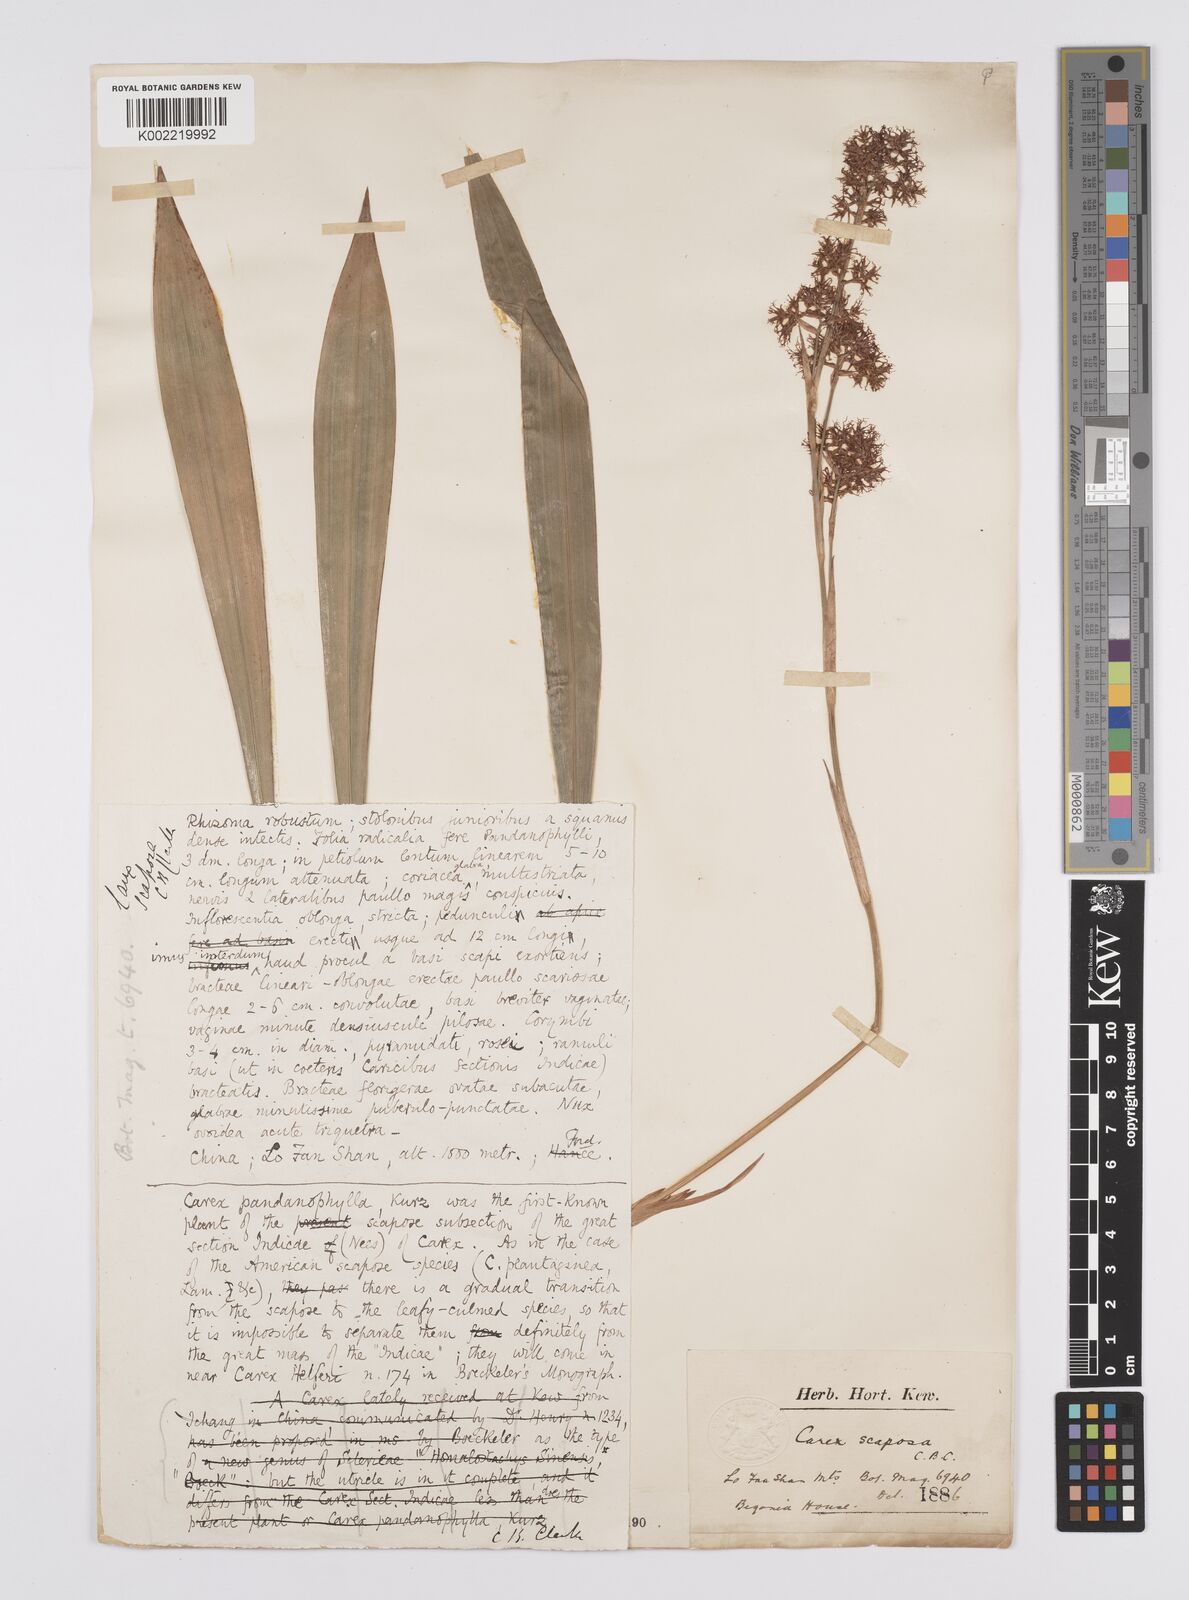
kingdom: Plantae
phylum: Tracheophyta
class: Liliopsida
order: Poales
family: Cyperaceae
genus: Carex
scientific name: Carex scaposa
